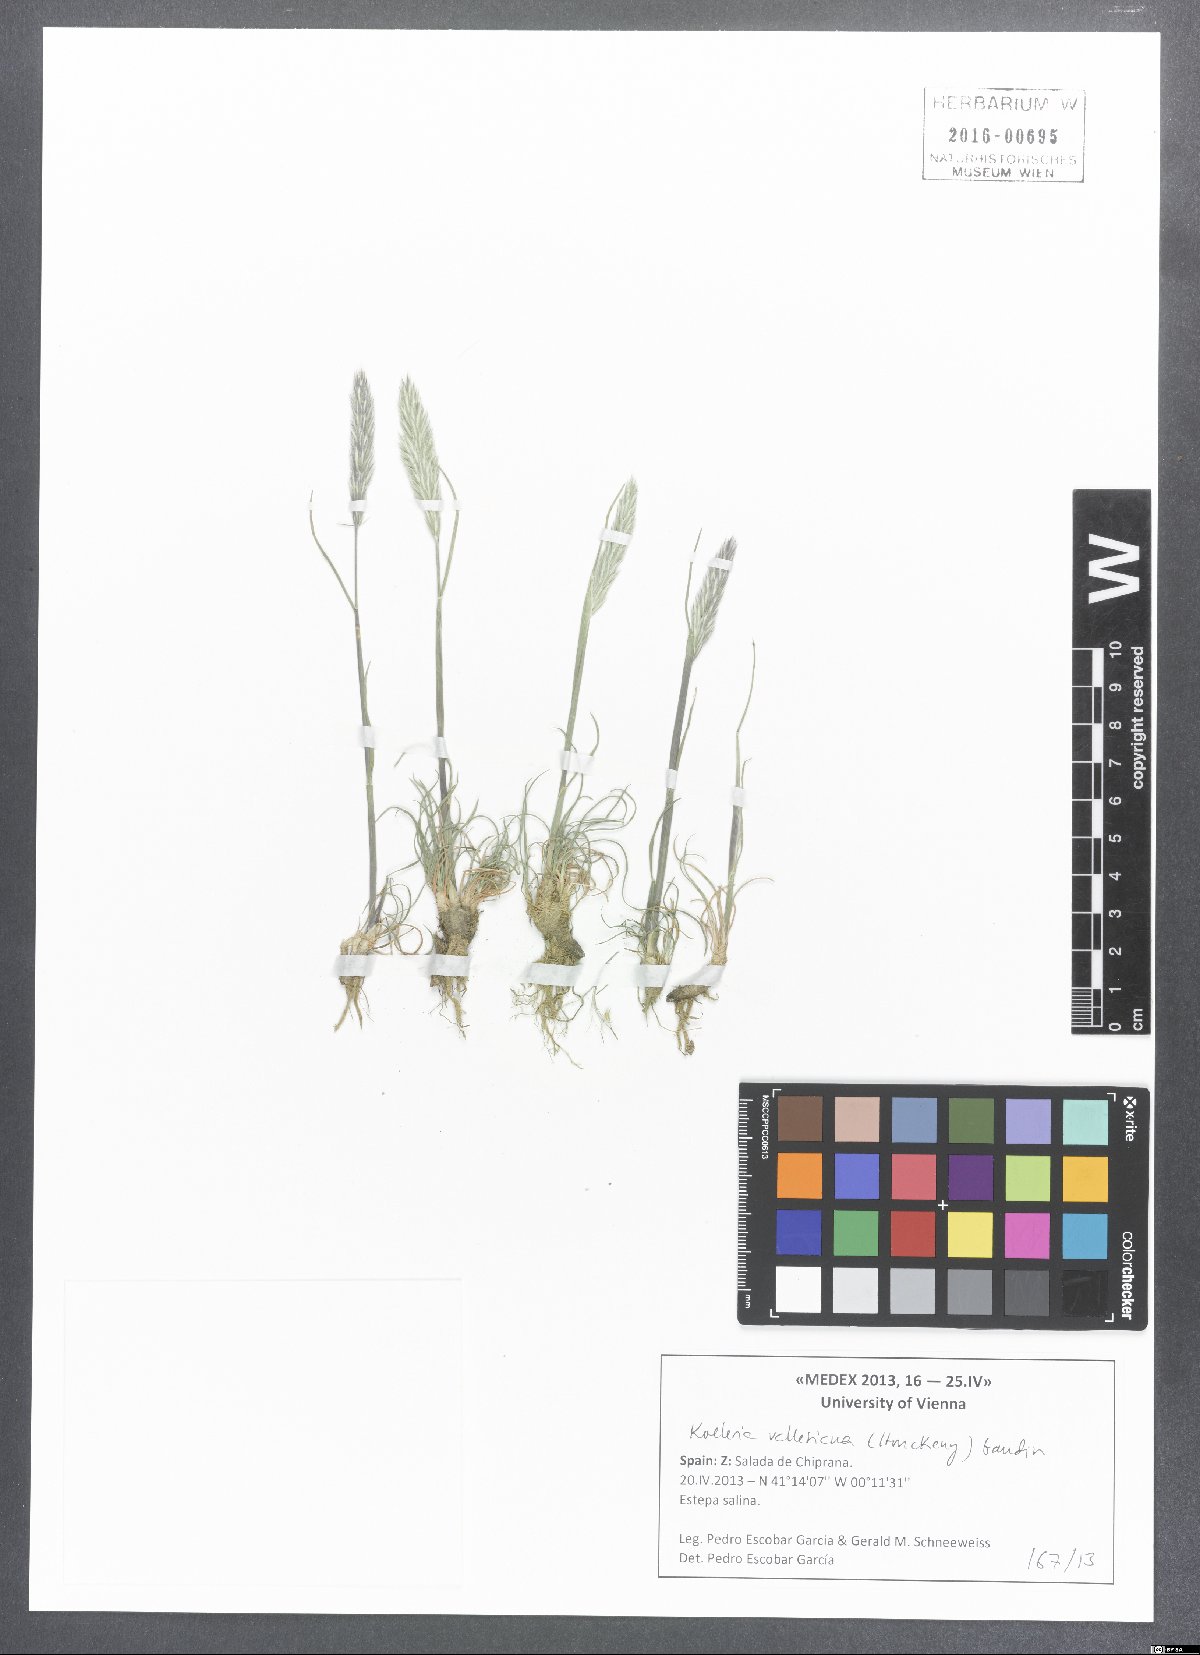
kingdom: Plantae
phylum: Tracheophyta
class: Liliopsida
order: Poales
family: Poaceae
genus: Koeleria
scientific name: Koeleria vallesiana
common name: Somerset hair-grass
